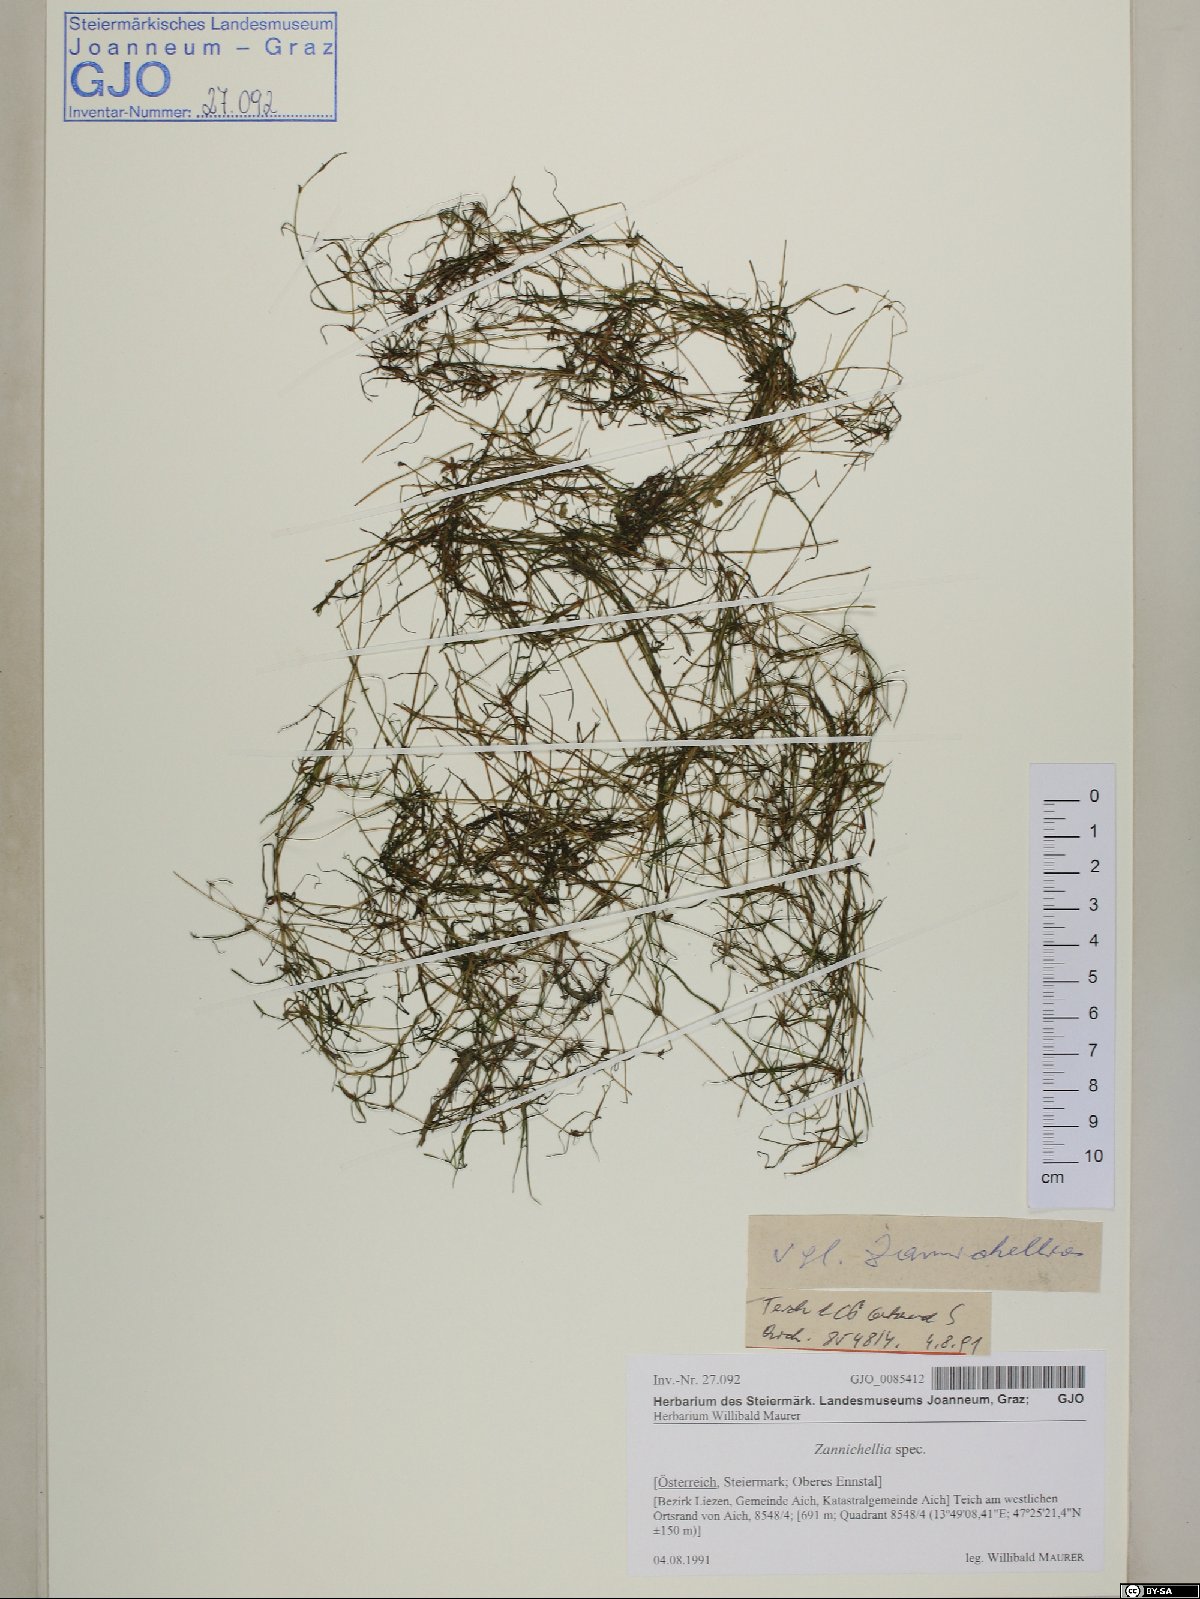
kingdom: Plantae
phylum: Tracheophyta
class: Liliopsida
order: Alismatales
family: Potamogetonaceae
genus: Zannichellia
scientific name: Zannichellia
